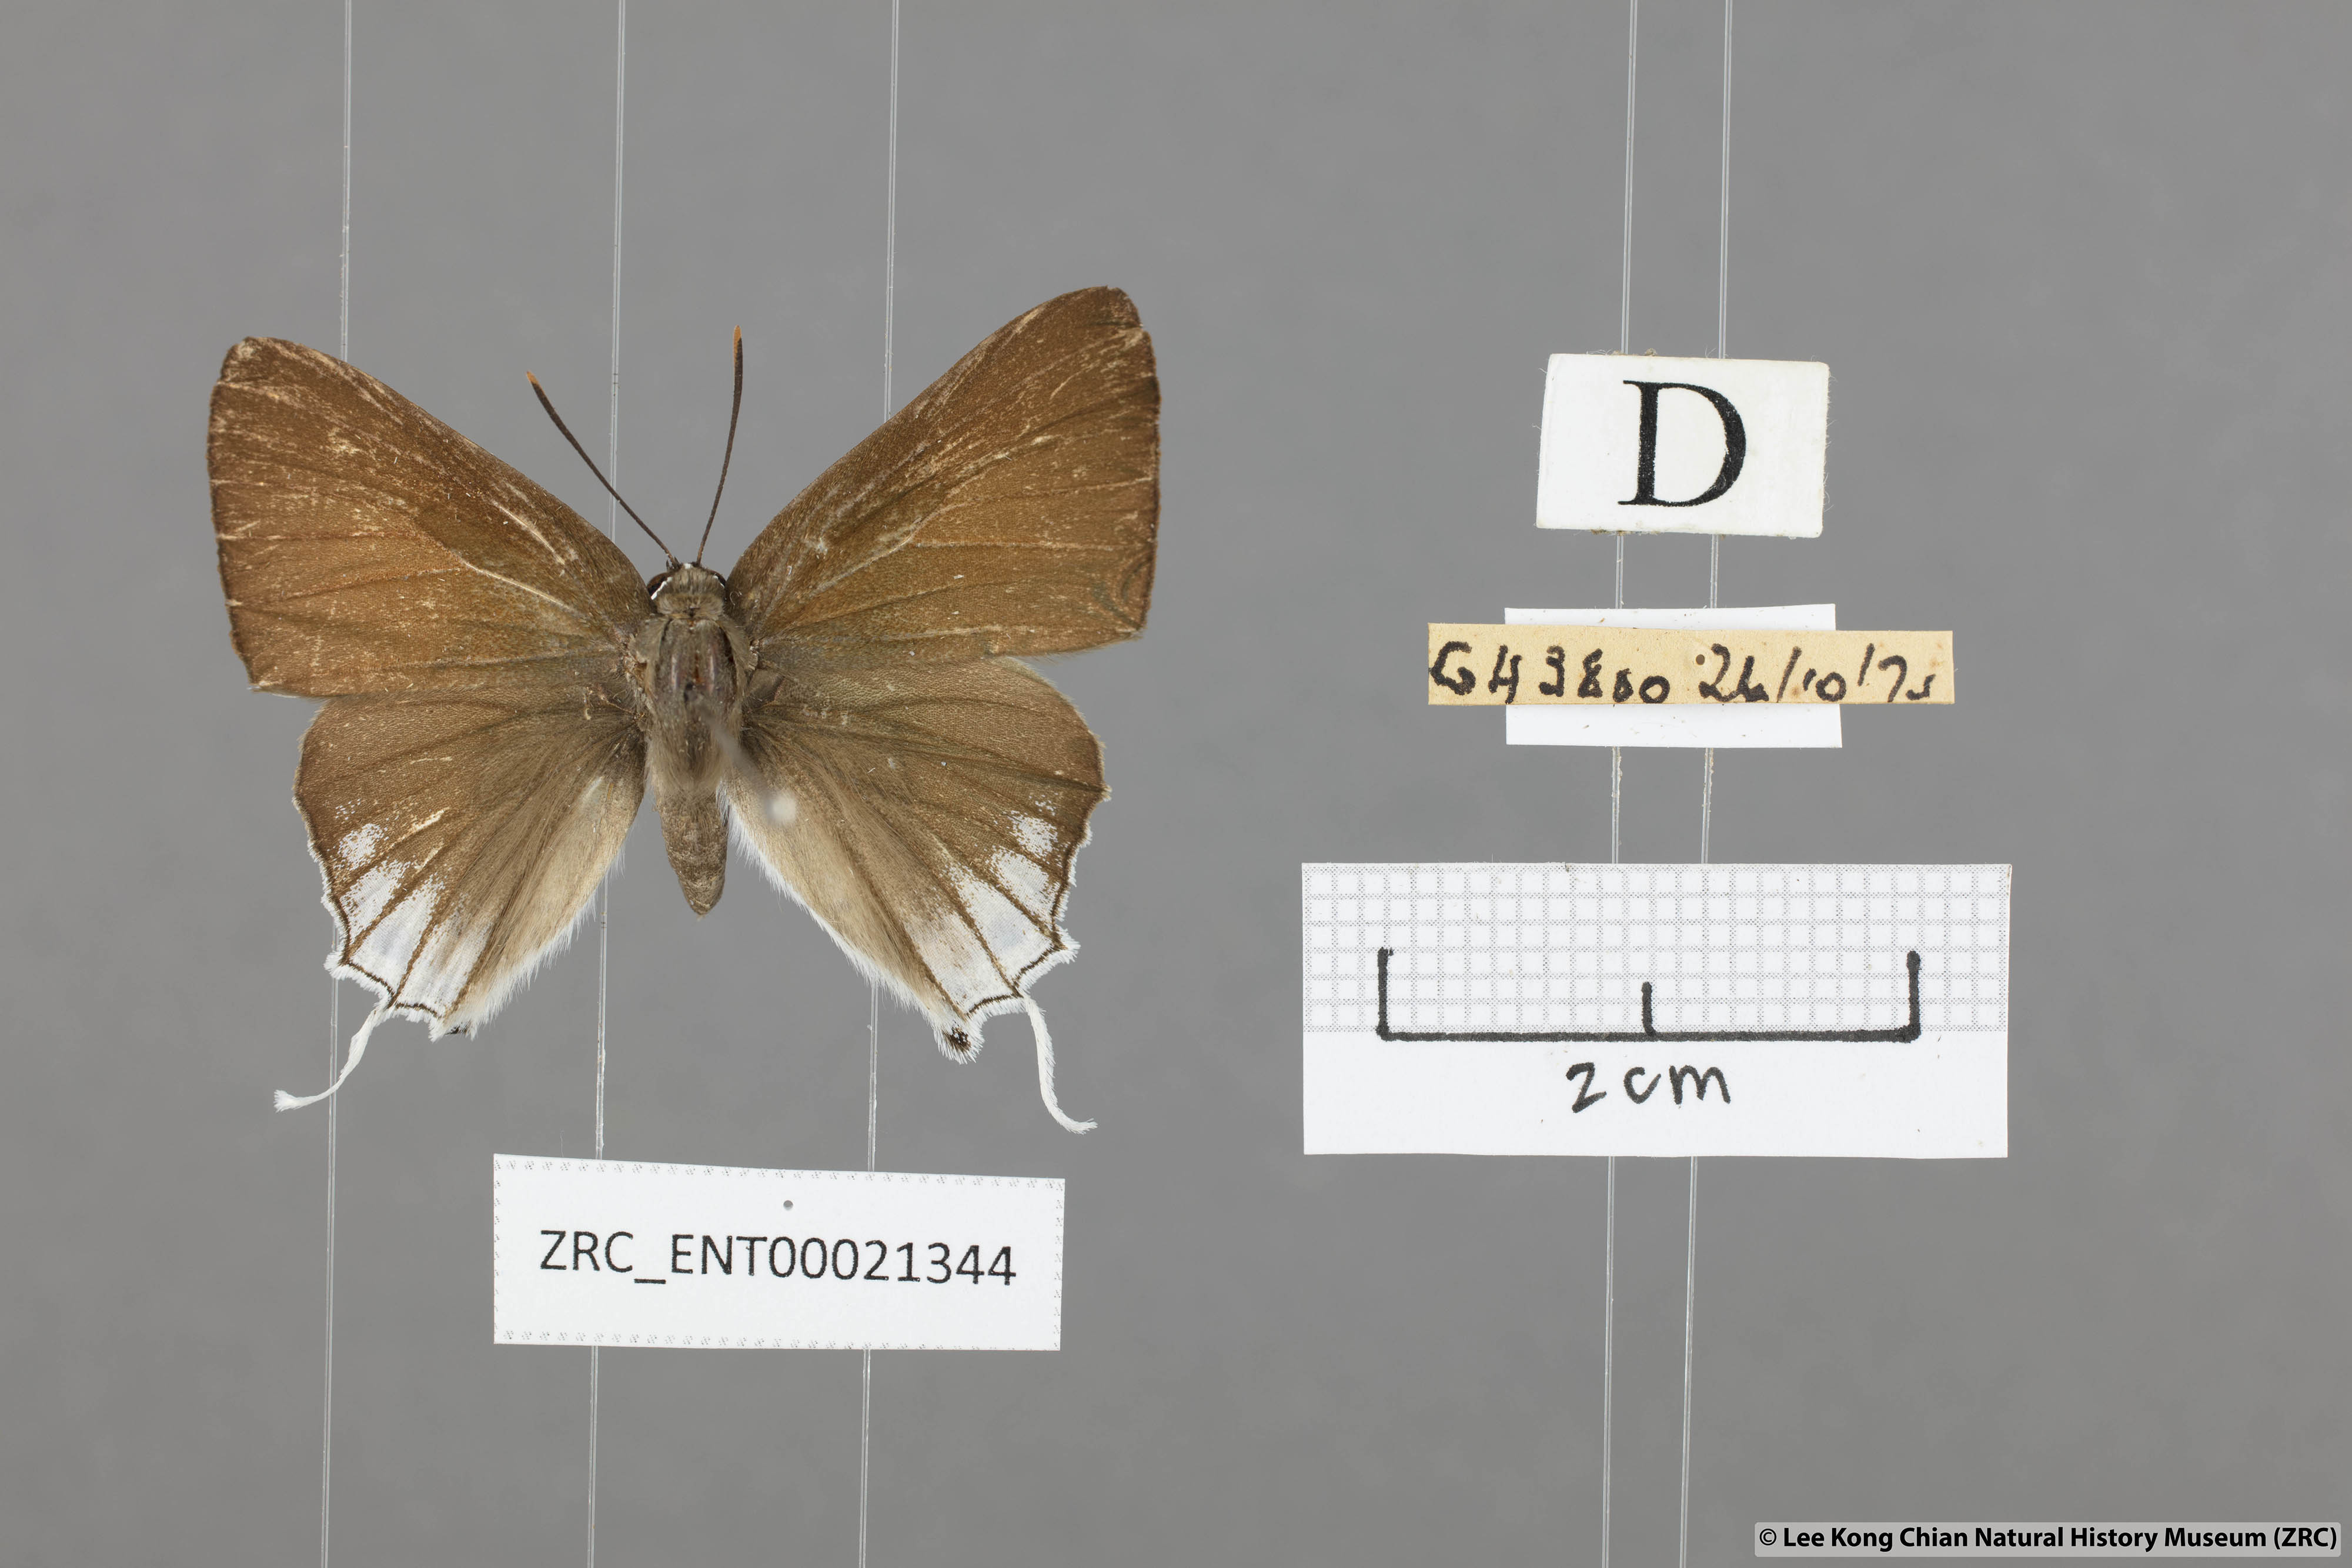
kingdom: Animalia
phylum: Arthropoda
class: Insecta
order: Lepidoptera
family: Lycaenidae
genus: Deudorix
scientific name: Deudorix
